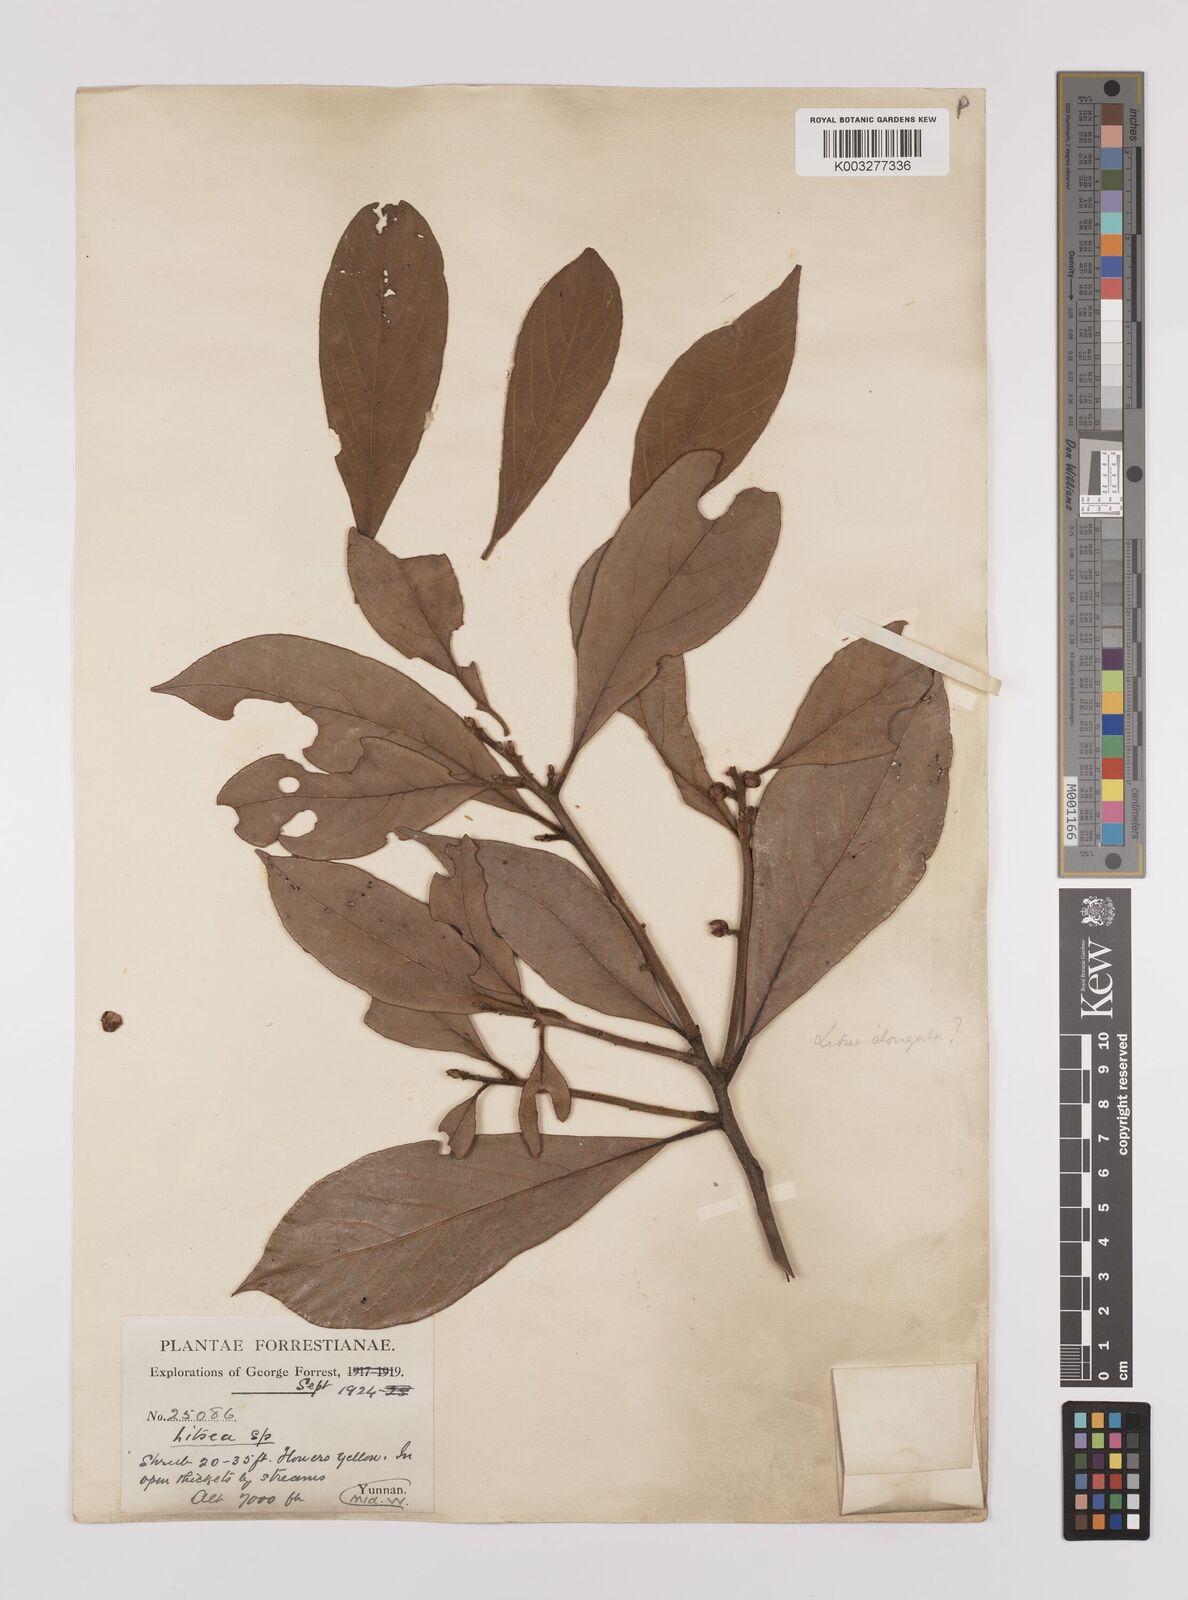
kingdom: Plantae
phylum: Tracheophyta
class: Magnoliopsida
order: Laurales
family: Lauraceae
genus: Litsea
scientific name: Litsea elongata
